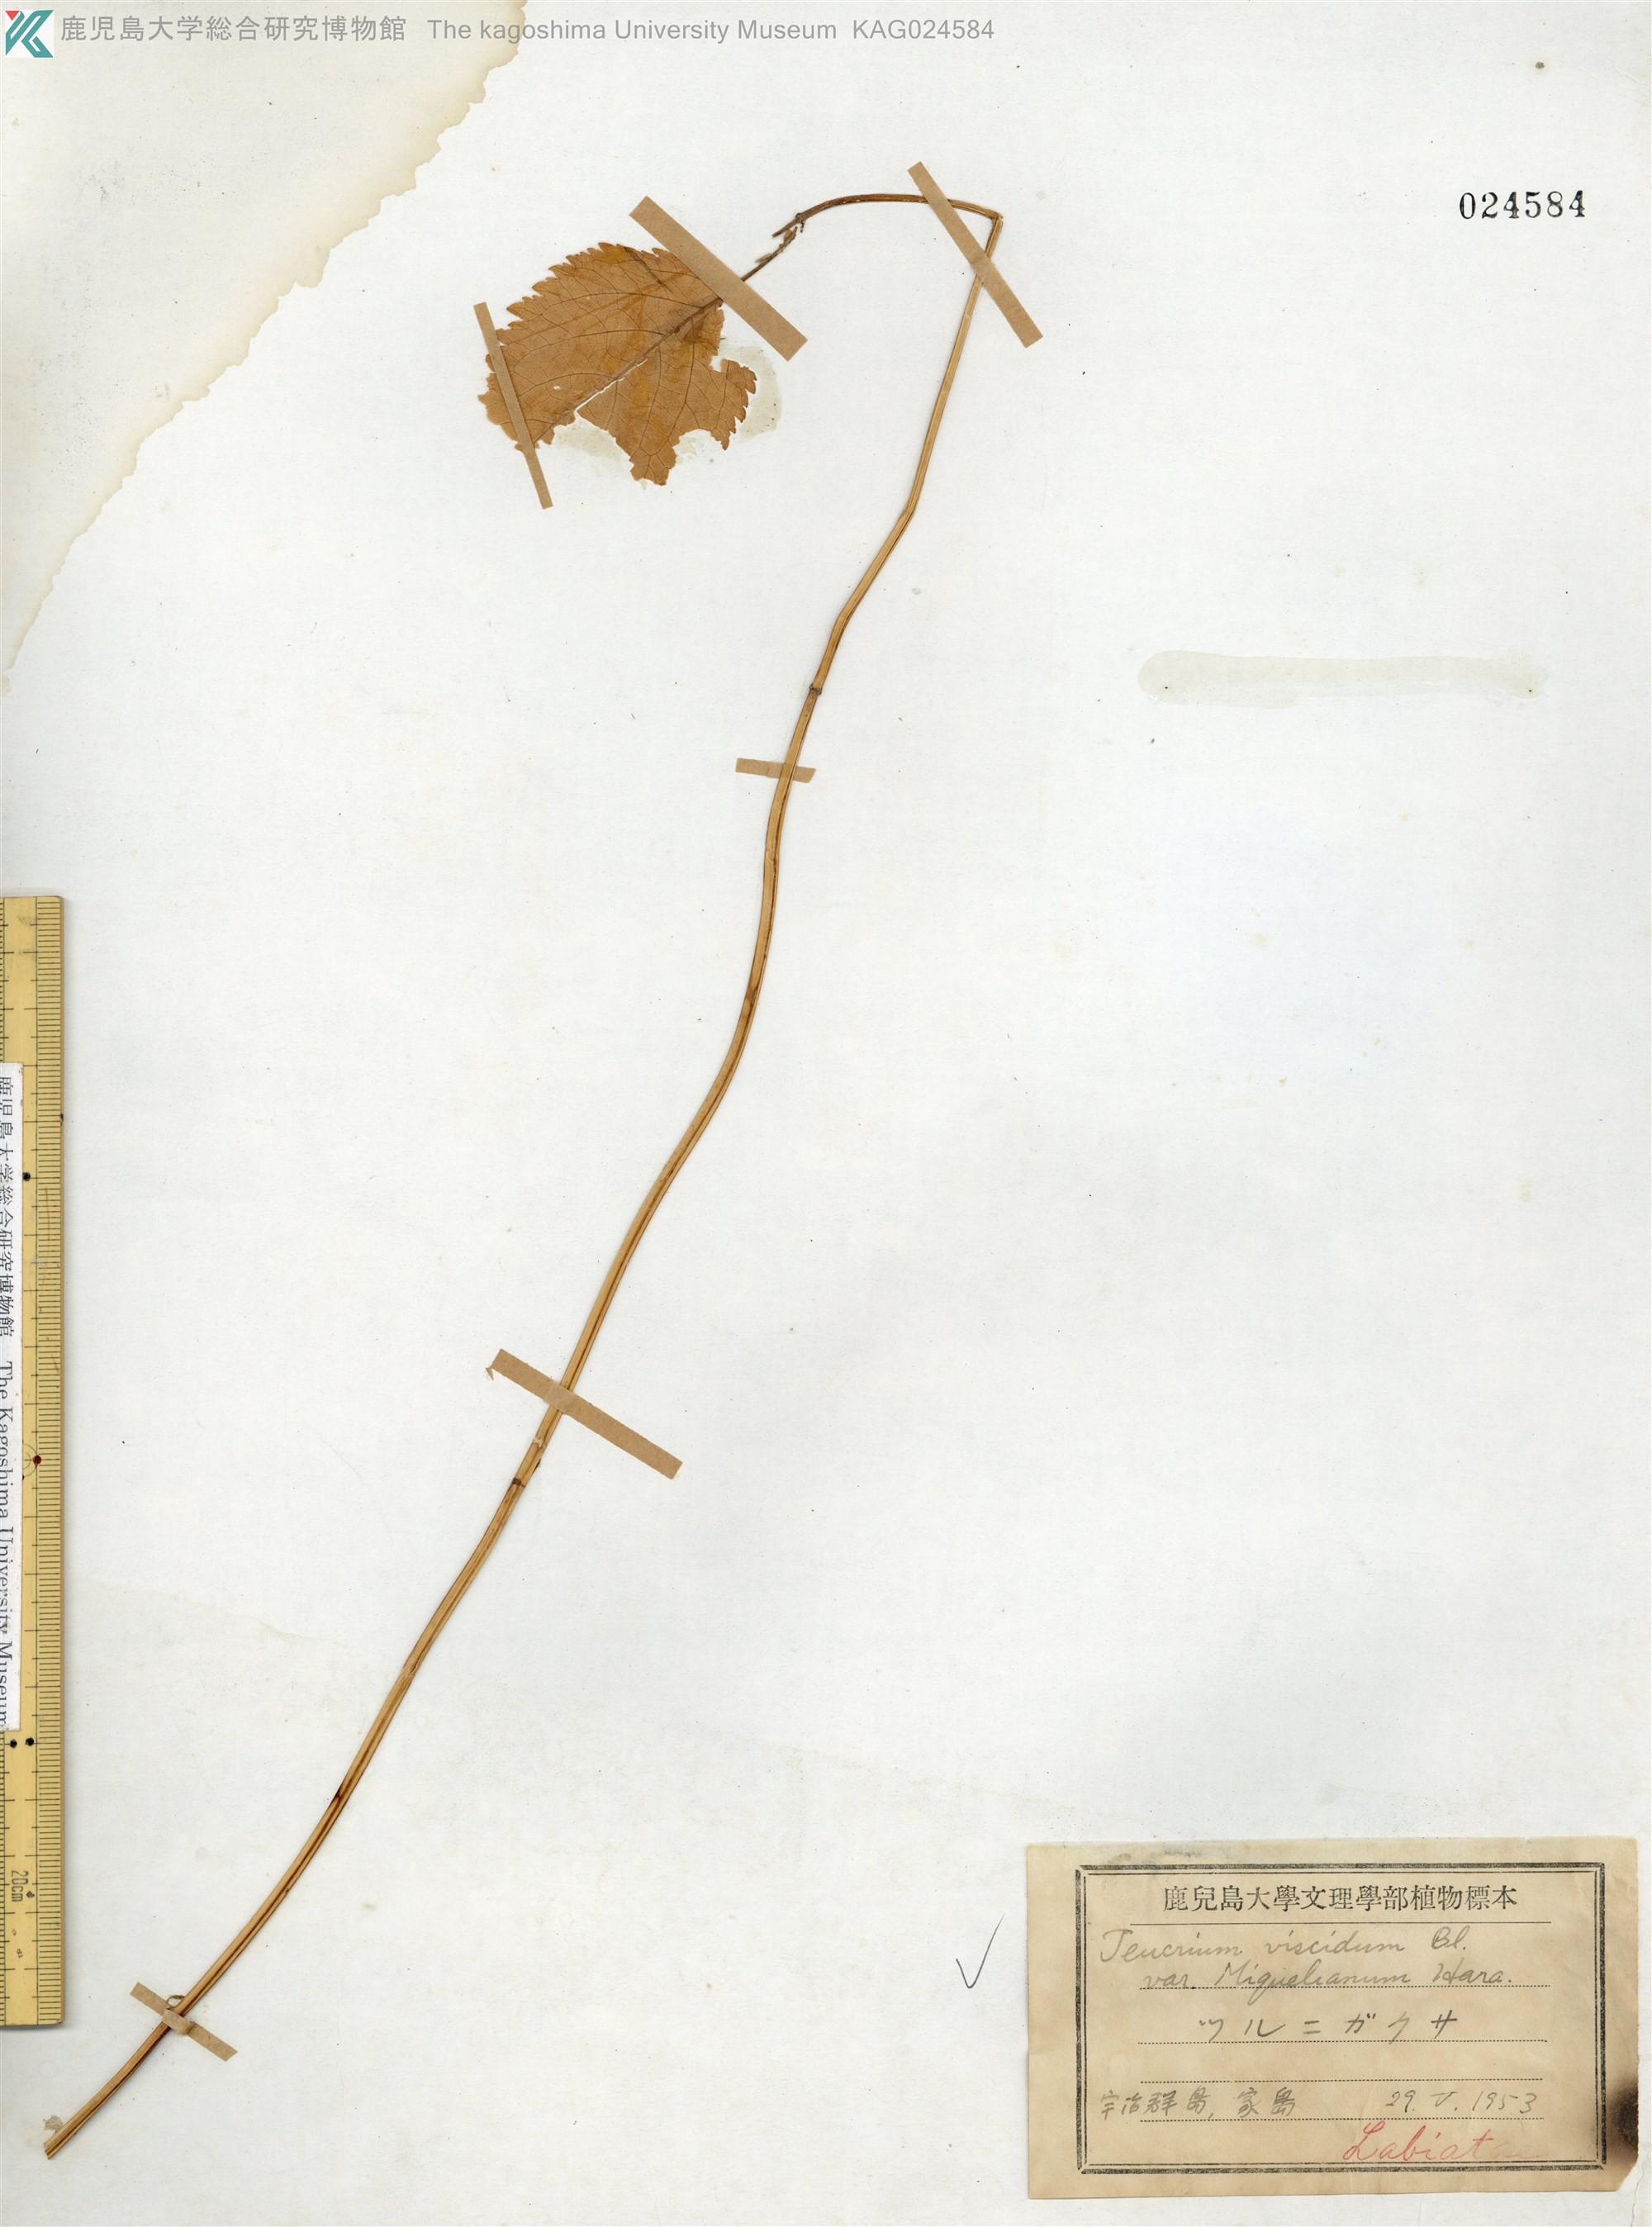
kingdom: Plantae
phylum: Tracheophyta
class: Magnoliopsida
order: Lamiales
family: Lamiaceae
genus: Teucrium
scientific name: Teucrium viscidum
